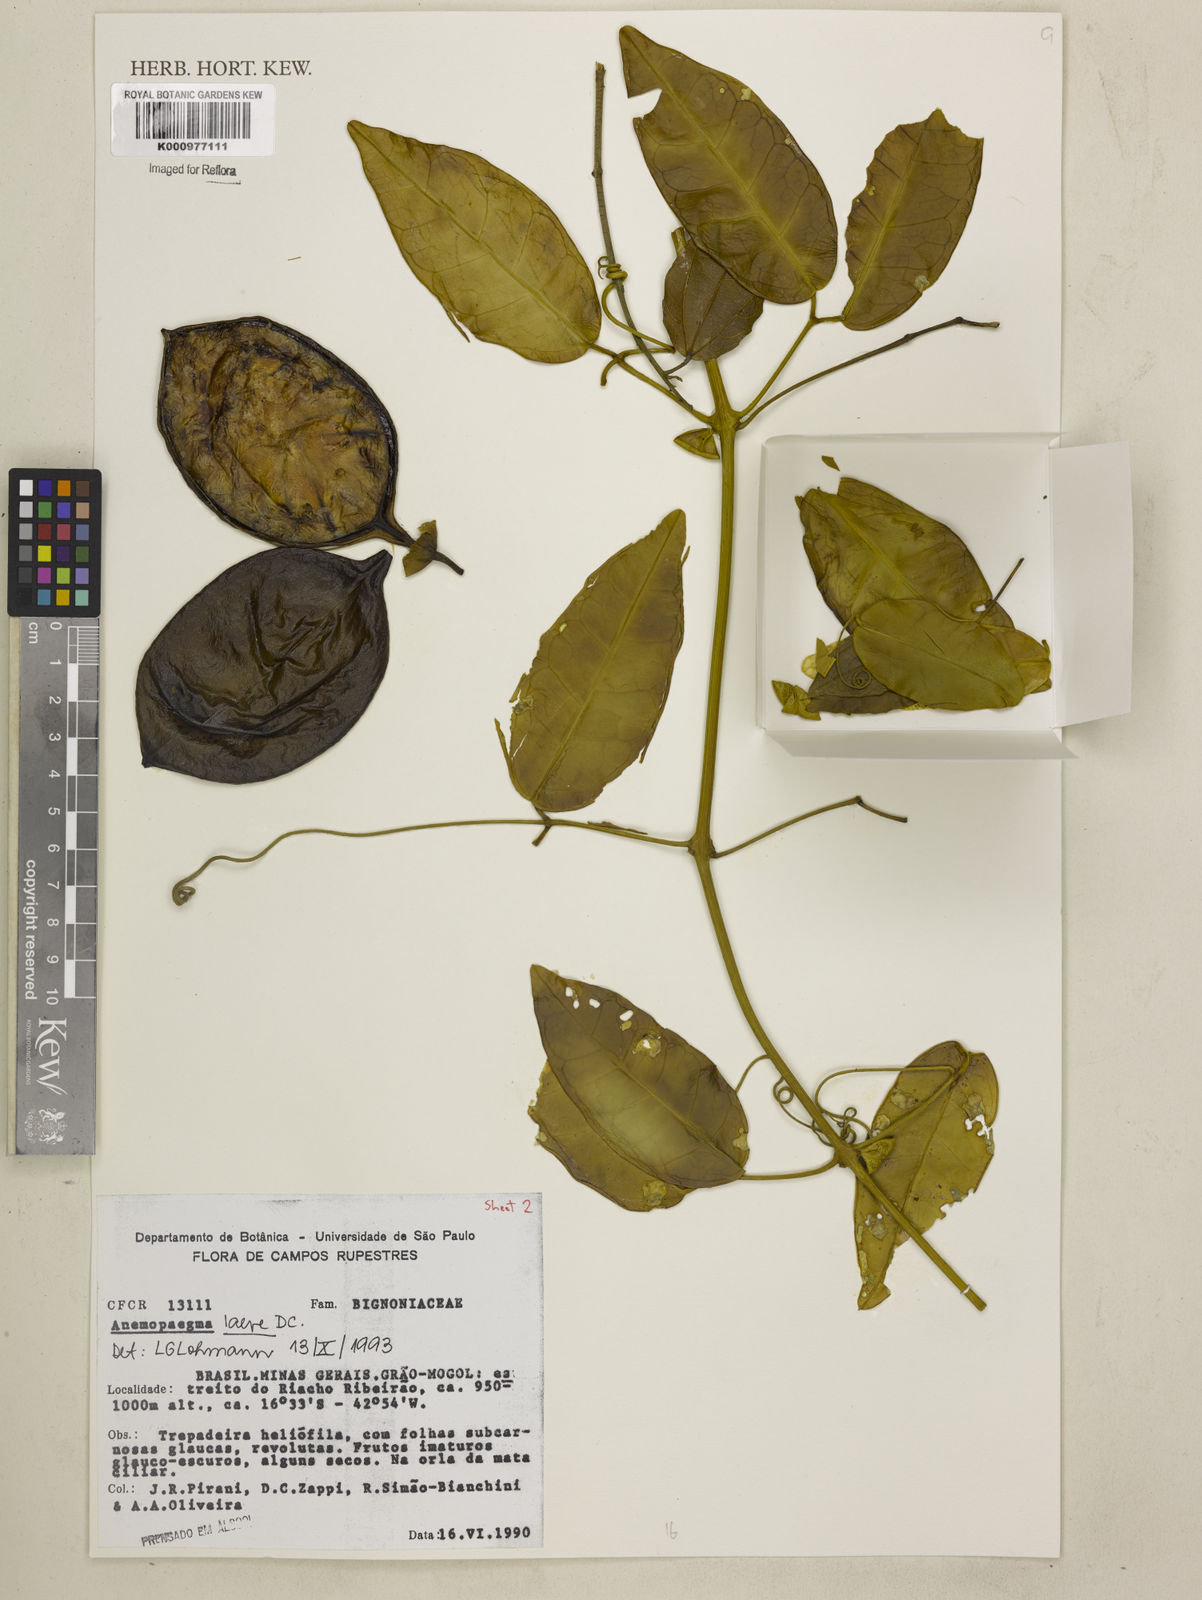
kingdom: Plantae
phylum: Tracheophyta
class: Magnoliopsida
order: Lamiales
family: Bignoniaceae
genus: Anemopaegma
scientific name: Anemopaegma laeve
